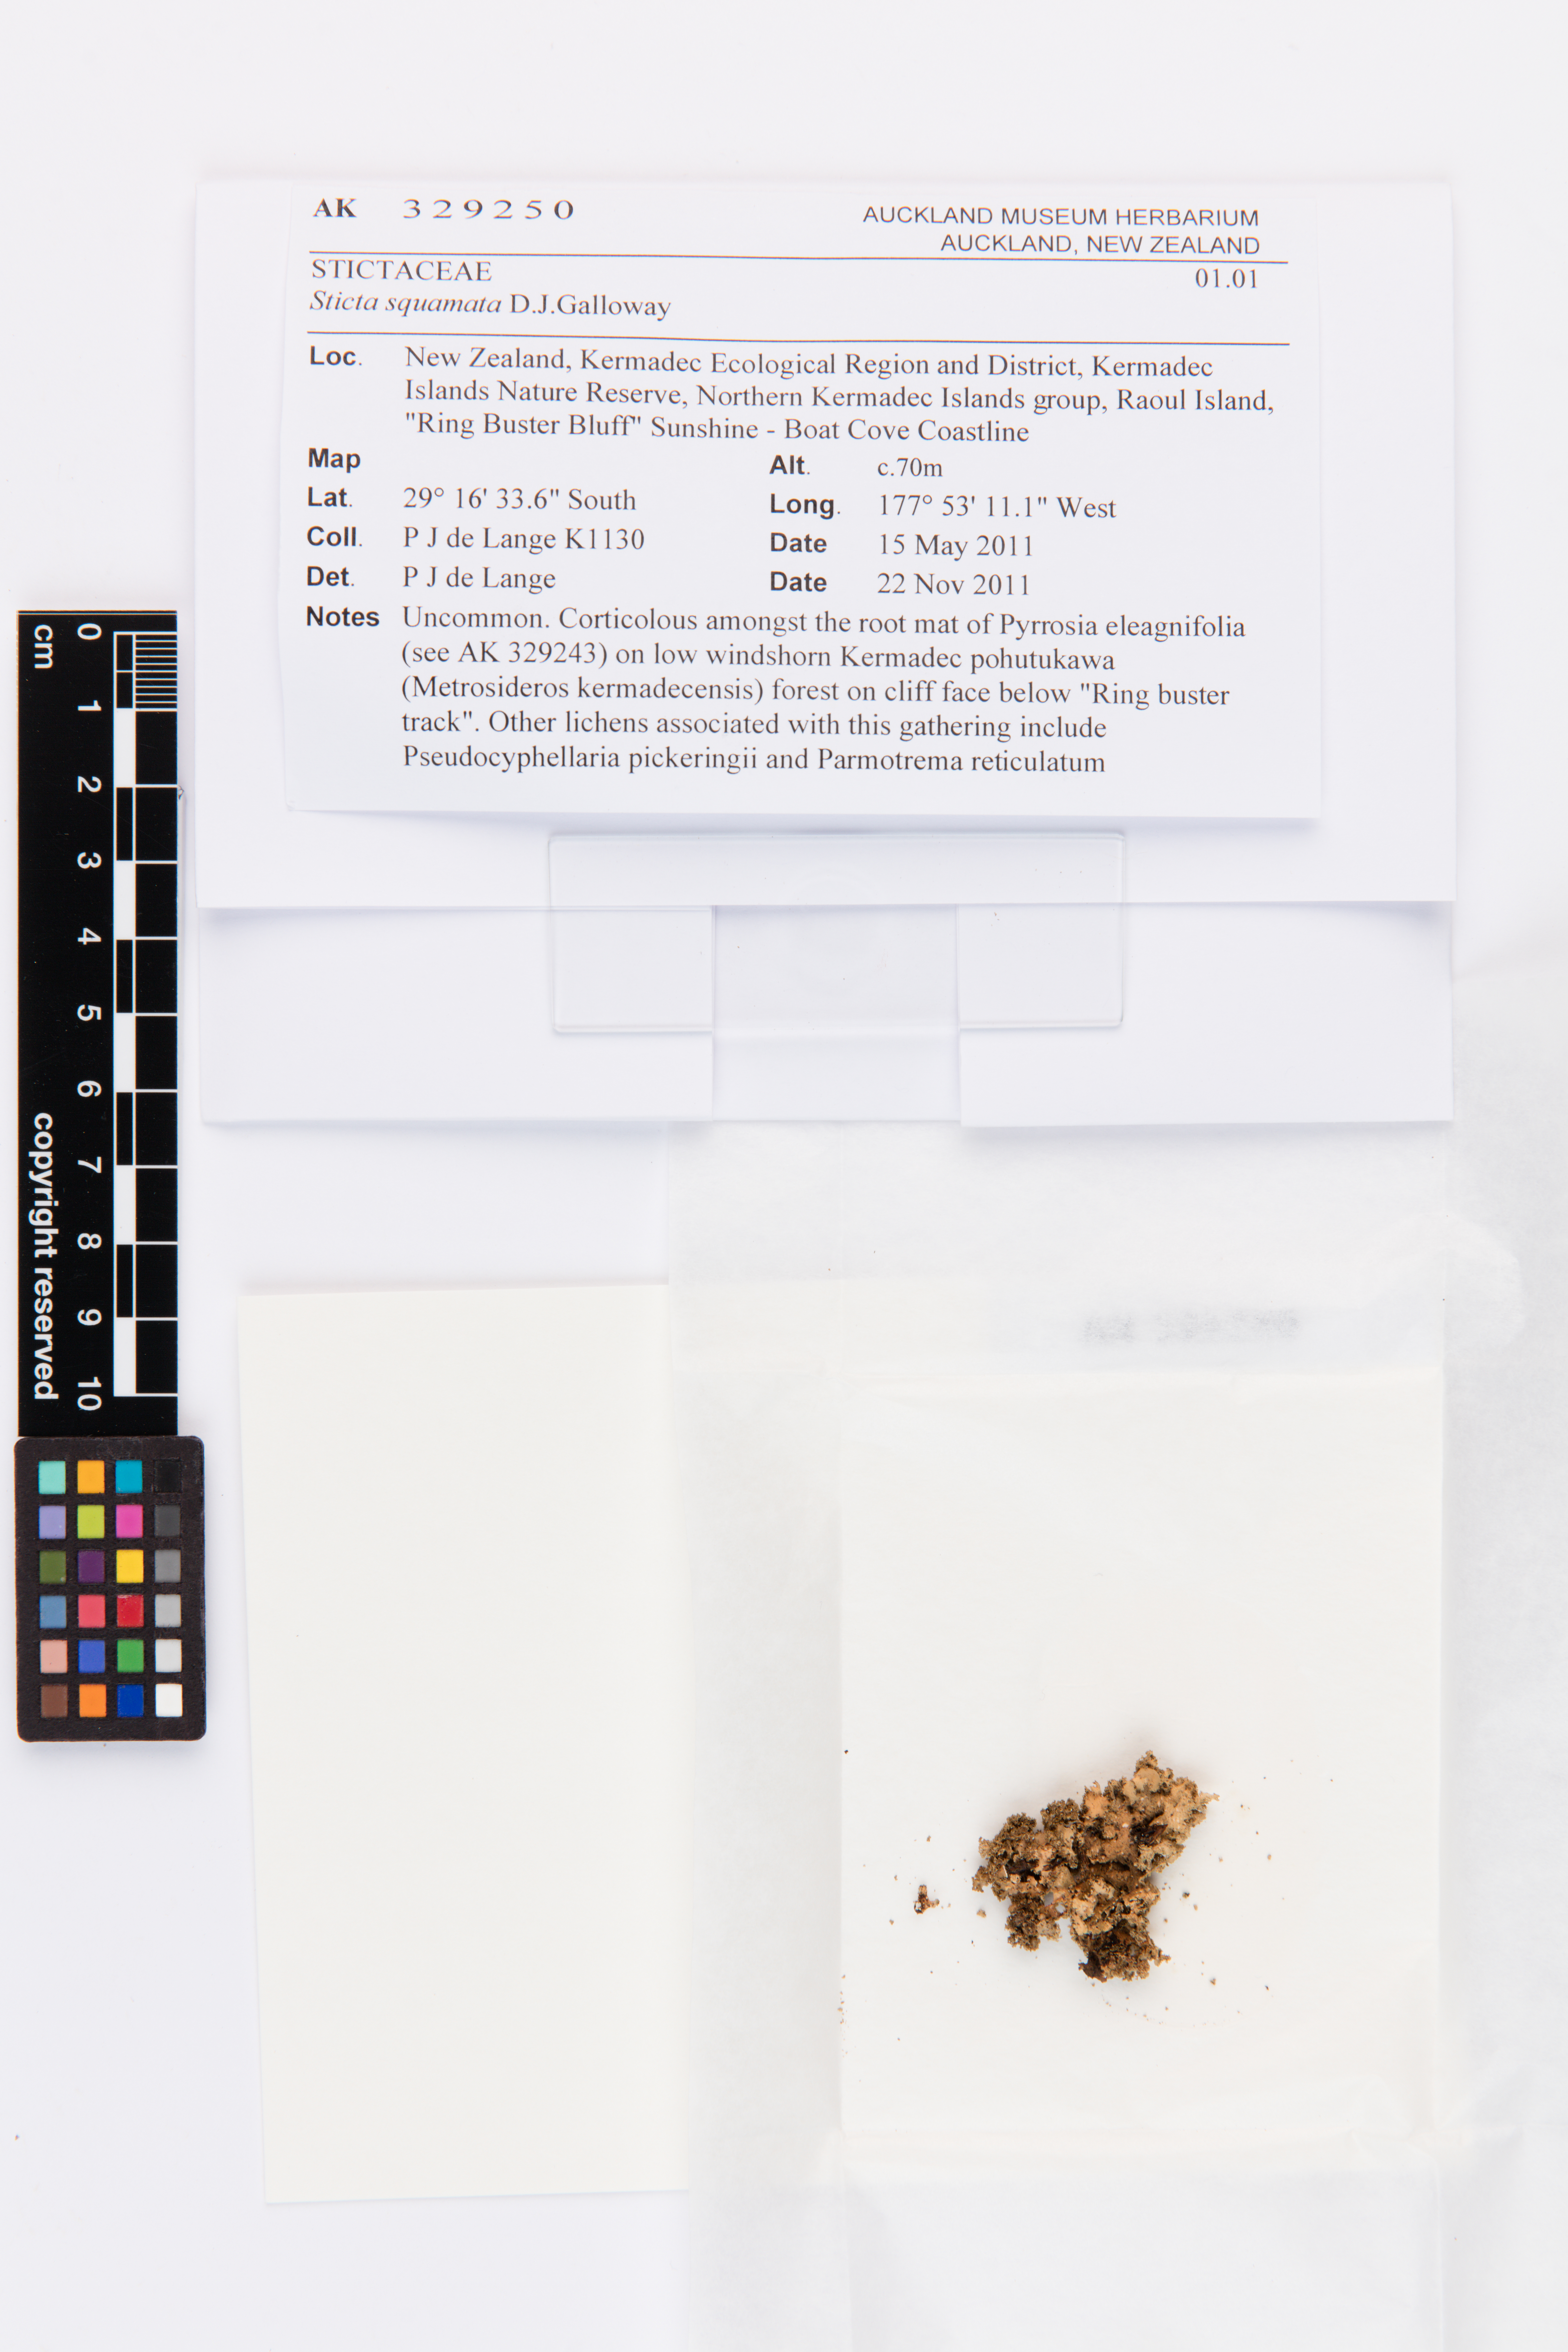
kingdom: Fungi
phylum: Ascomycota
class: Lecanoromycetes
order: Peltigerales
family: Lobariaceae
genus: Sticta
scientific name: Sticta squamata
